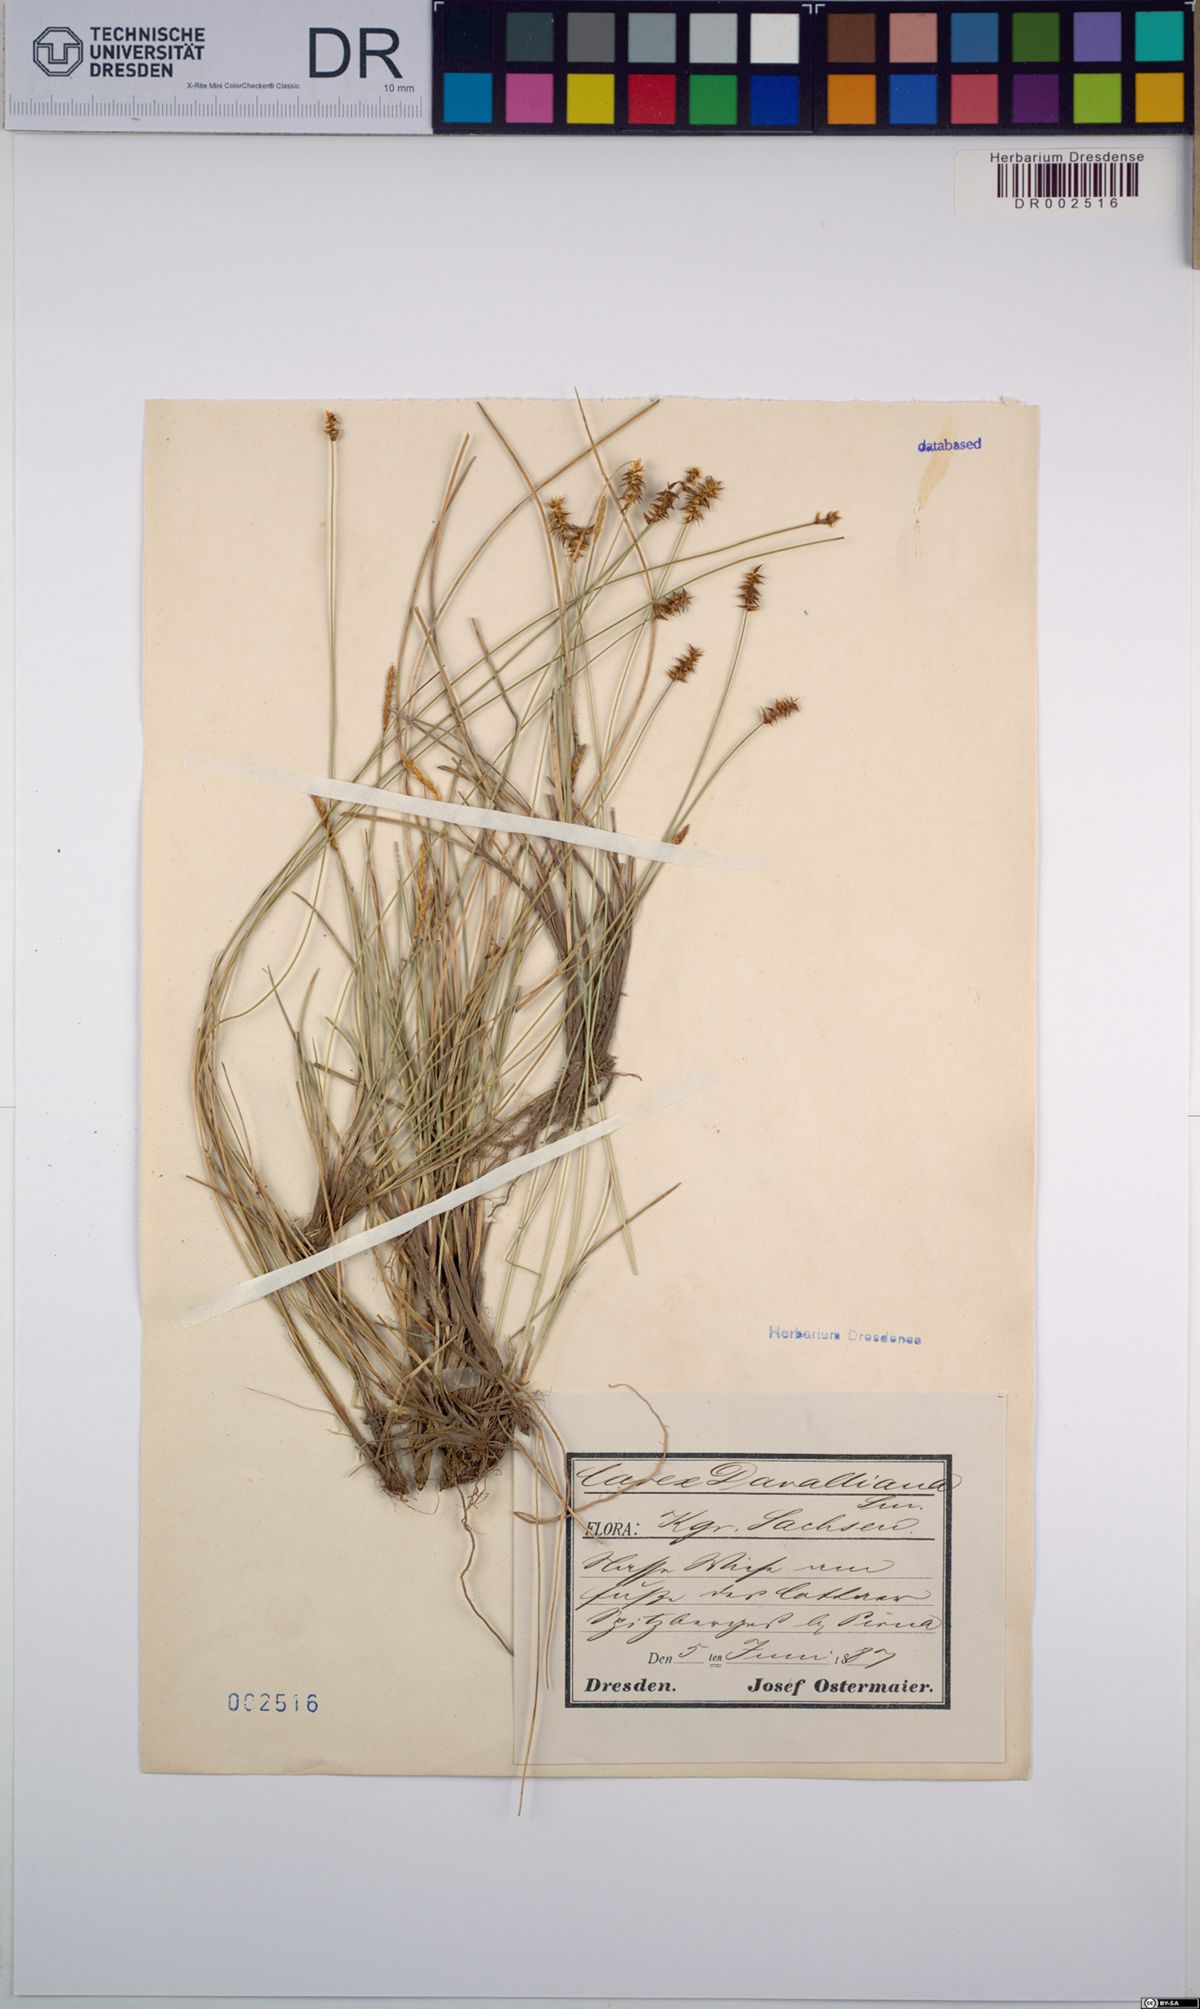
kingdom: Plantae
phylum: Tracheophyta
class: Liliopsida
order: Poales
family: Cyperaceae
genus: Carex
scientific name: Carex davalliana
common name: Davall's sedge
